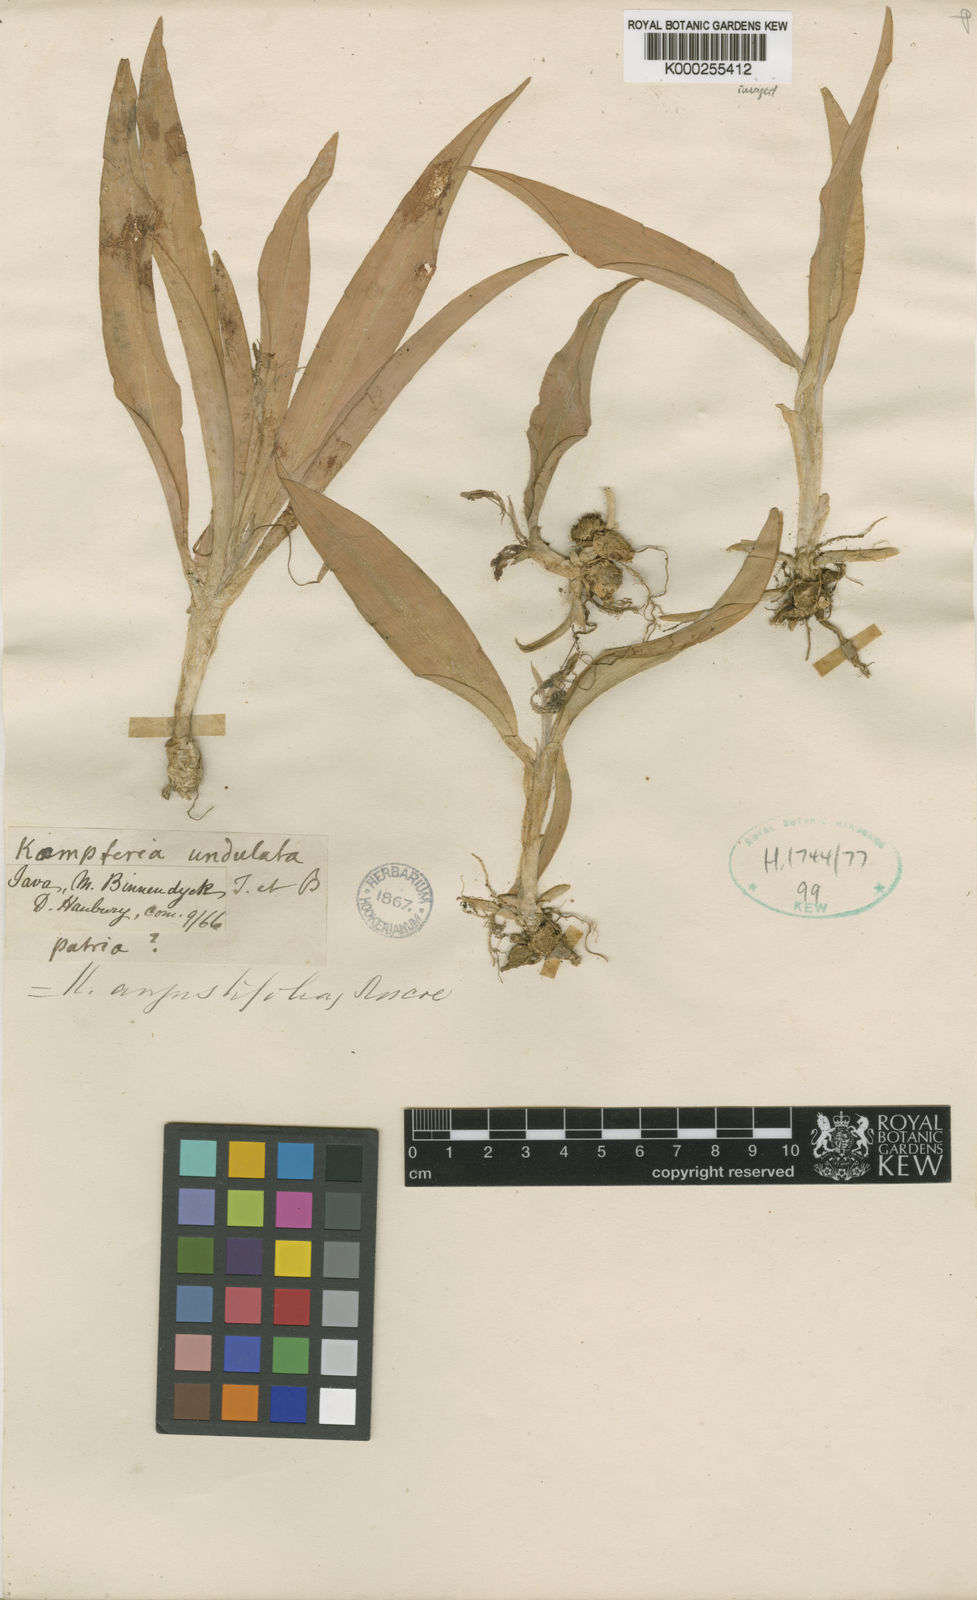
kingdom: Plantae
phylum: Tracheophyta
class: Liliopsida
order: Zingiberales
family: Zingiberaceae
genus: Kaempferia
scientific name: Kaempferia angustifolia
